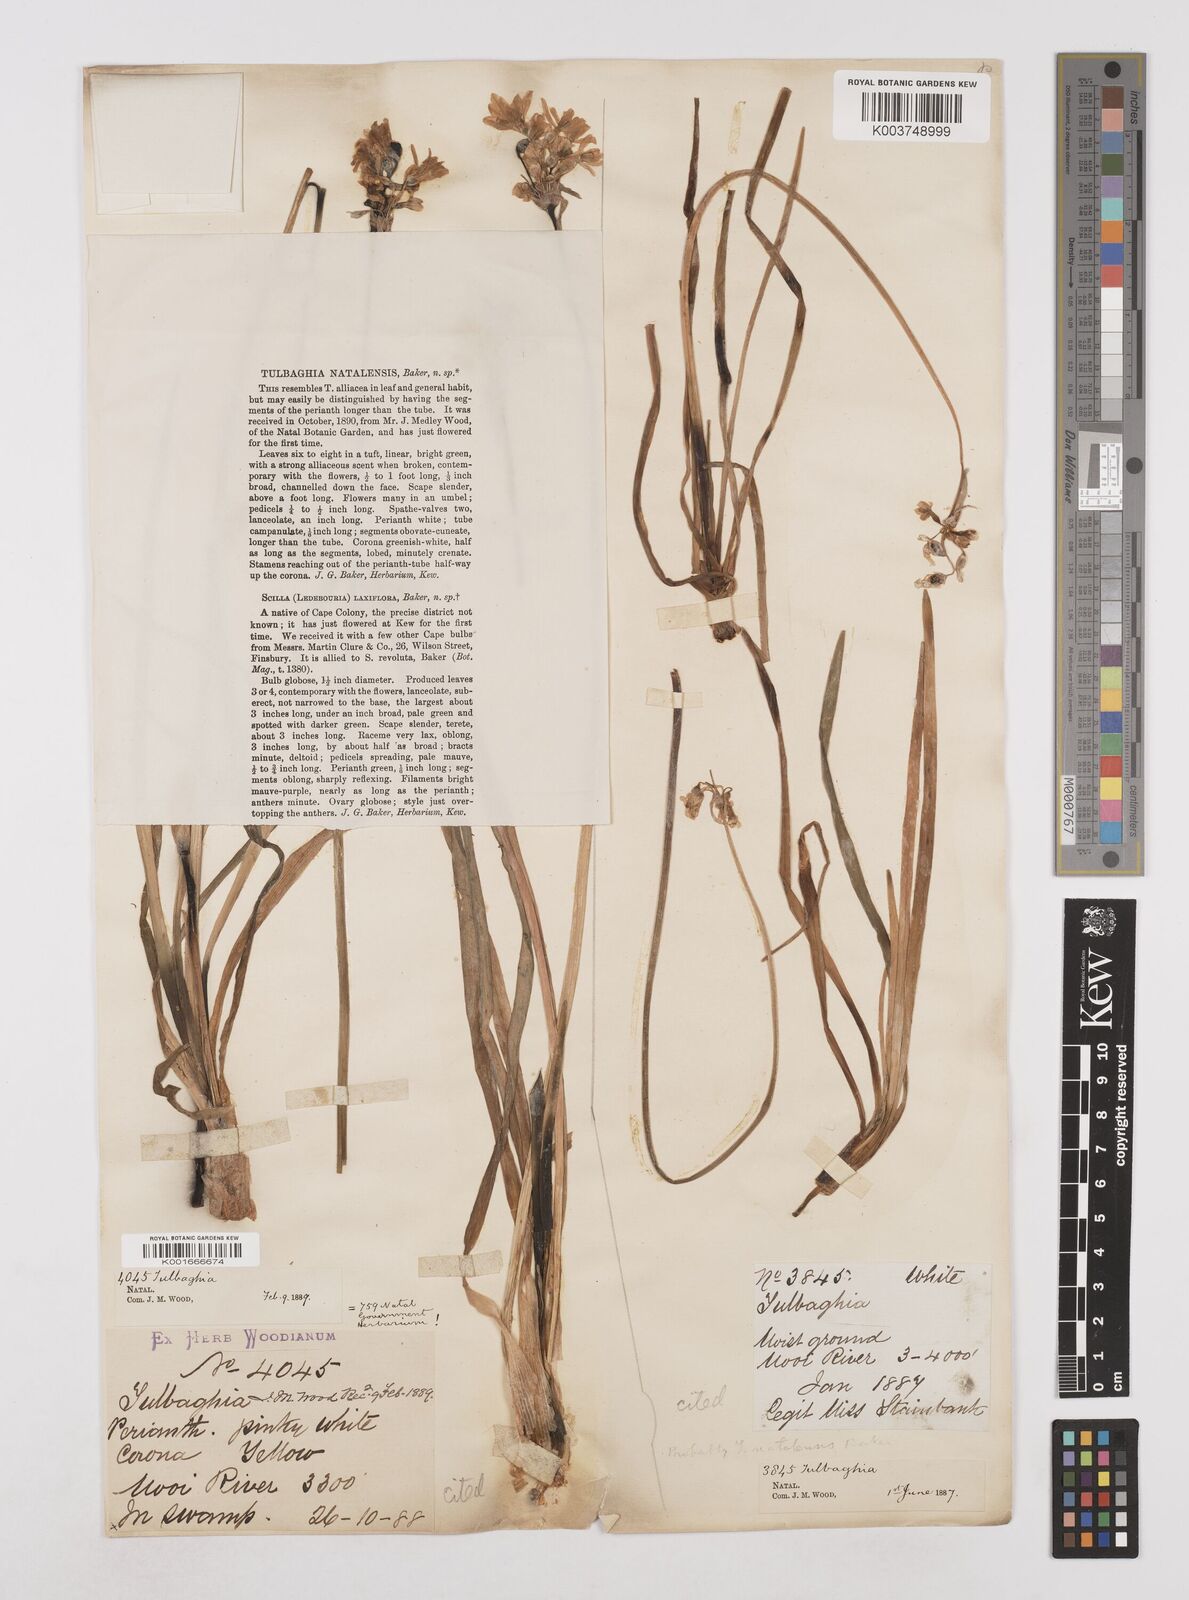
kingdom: Plantae
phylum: Tracheophyta
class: Liliopsida
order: Asparagales
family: Amaryllidaceae
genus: Tulbaghia
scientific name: Tulbaghia natalensis
